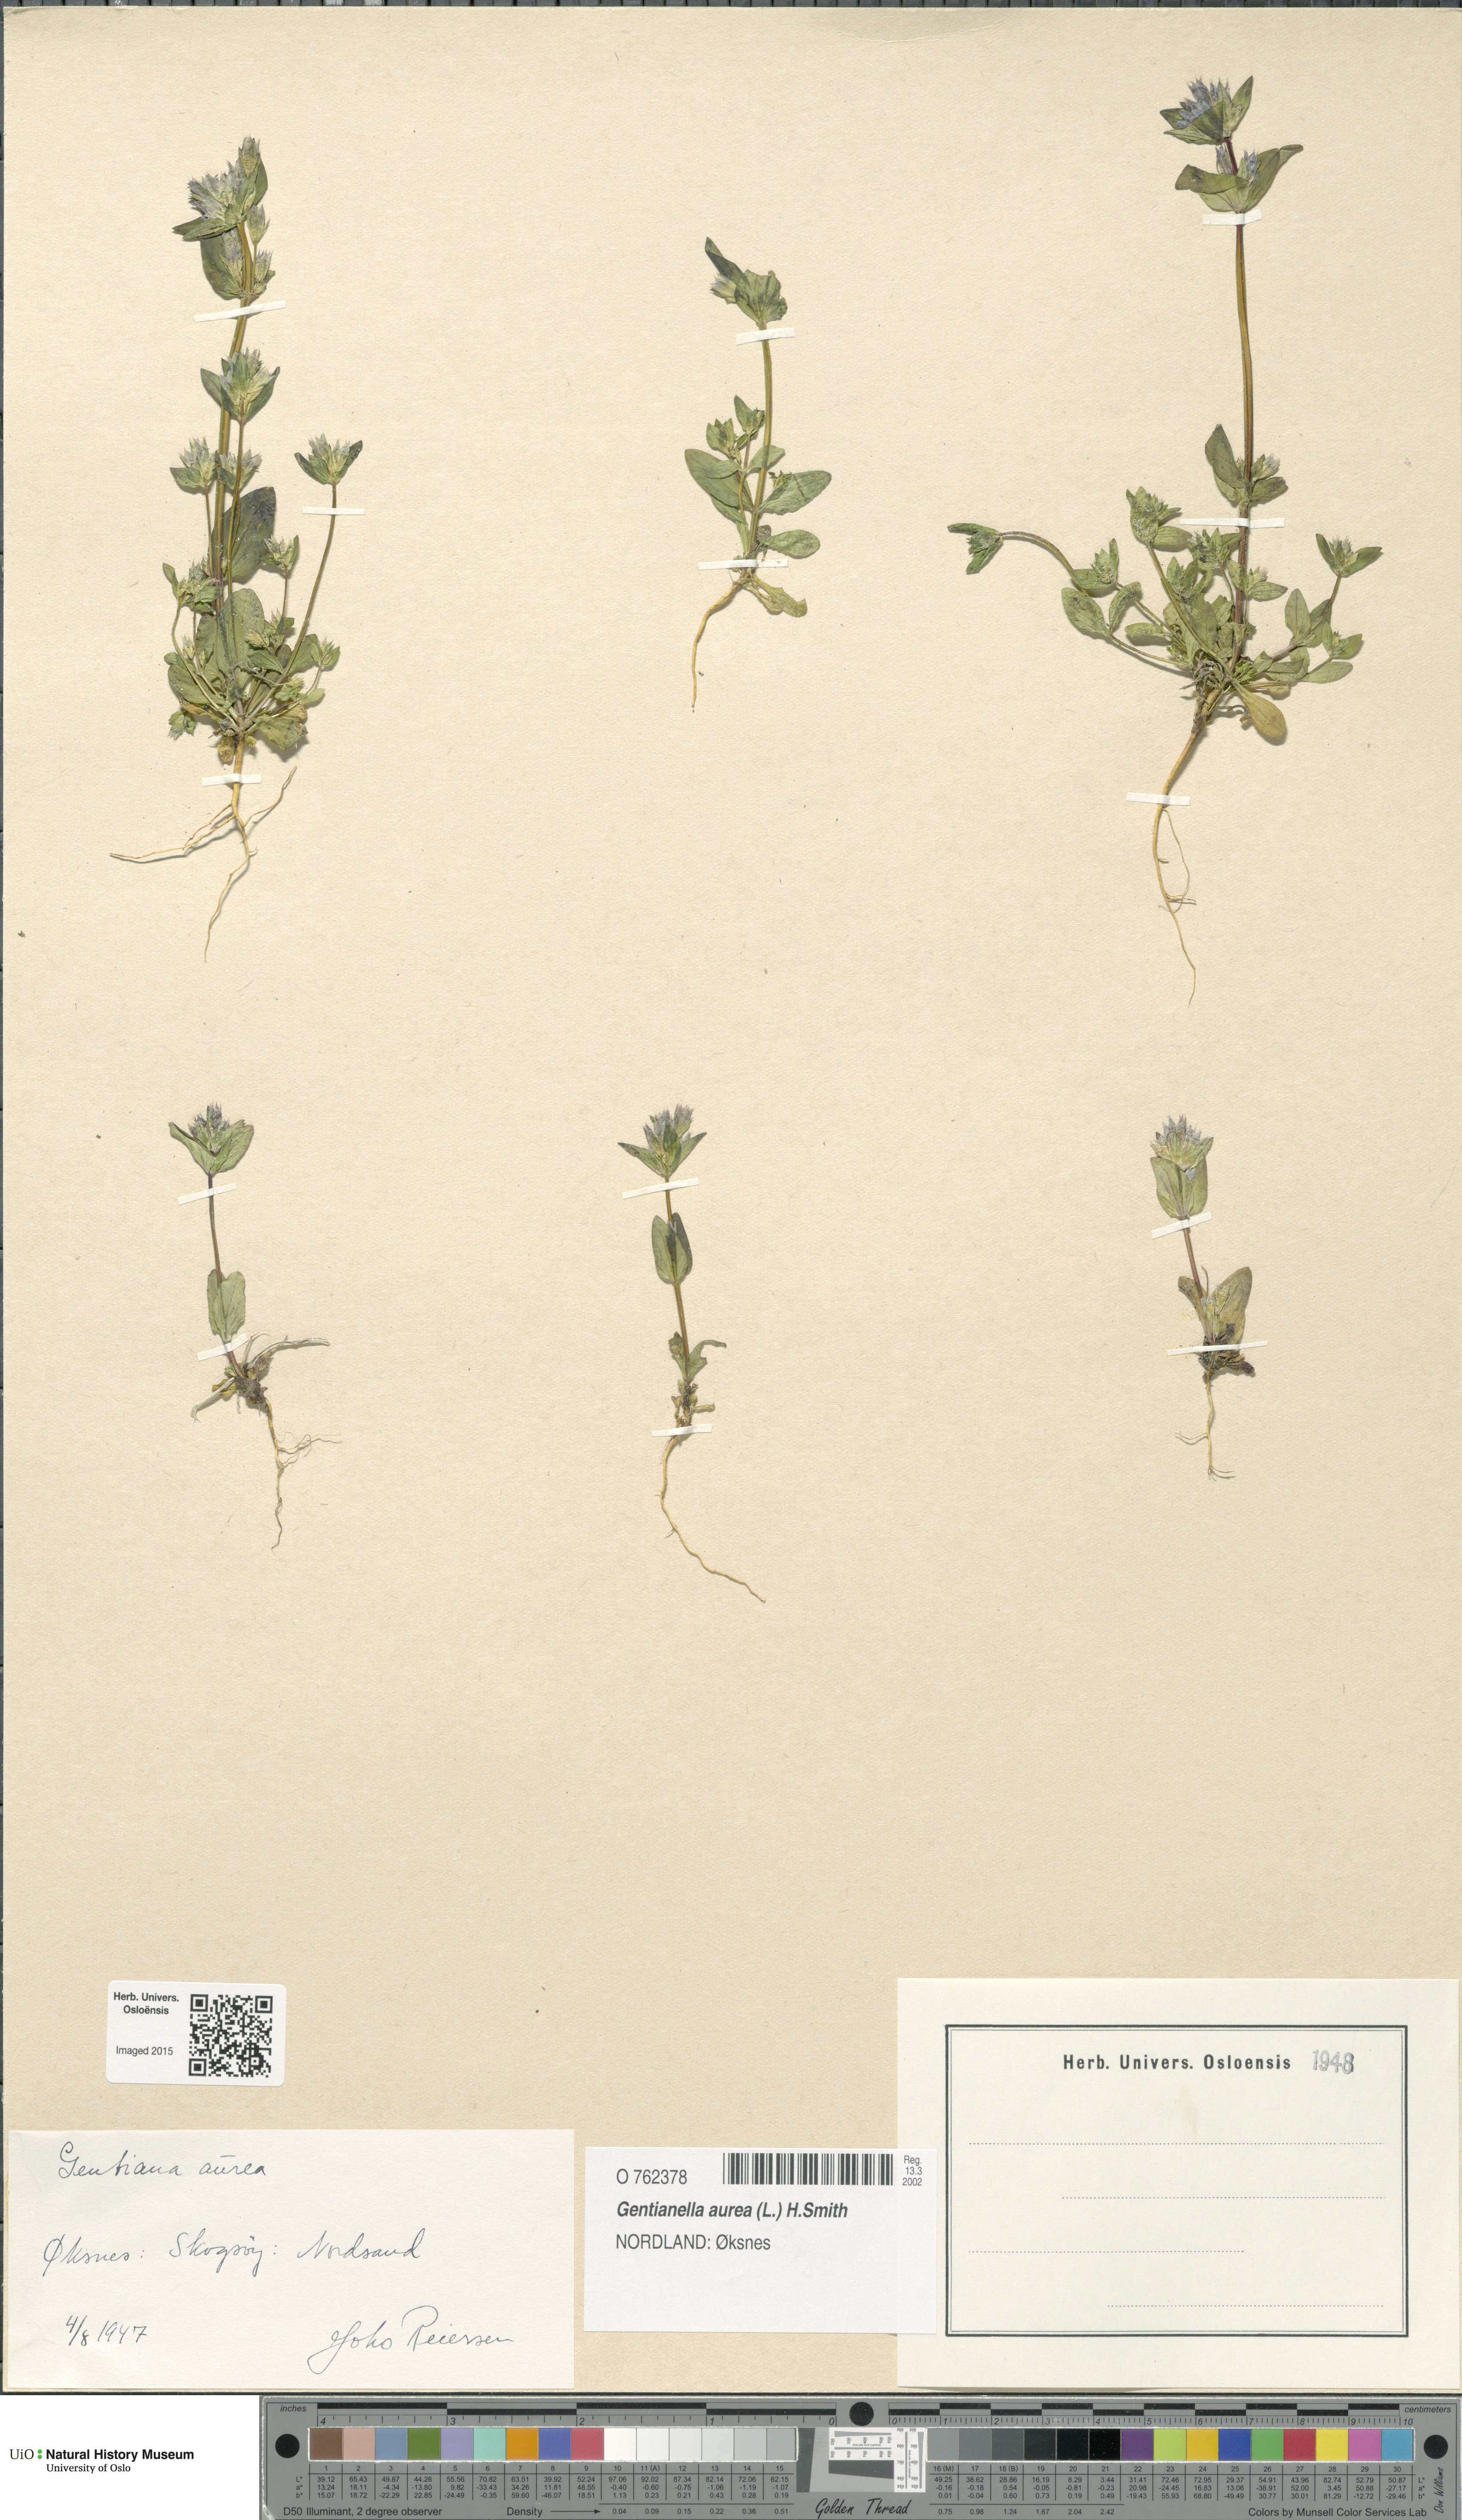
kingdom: Plantae
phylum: Tracheophyta
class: Magnoliopsida
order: Gentianales
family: Gentianaceae
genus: Gentianella
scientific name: Gentianella aurea
